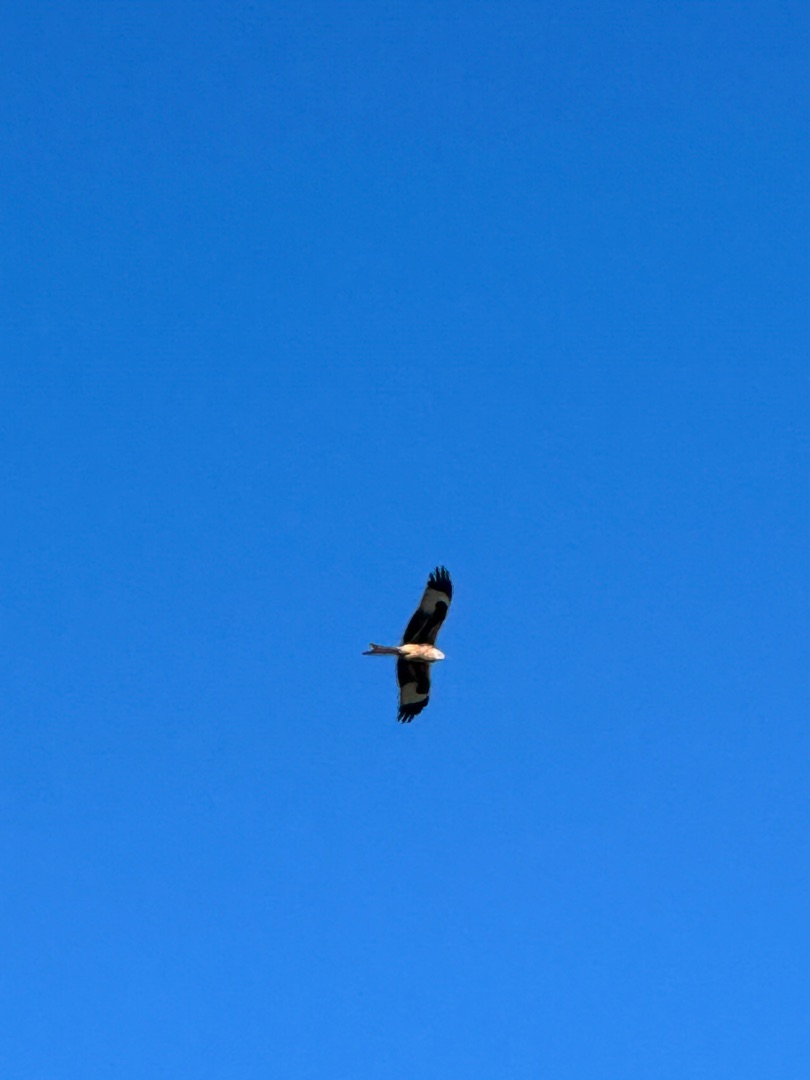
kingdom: Animalia
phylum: Chordata
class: Aves
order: Accipitriformes
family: Accipitridae
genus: Milvus
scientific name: Milvus milvus
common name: Rød glente
